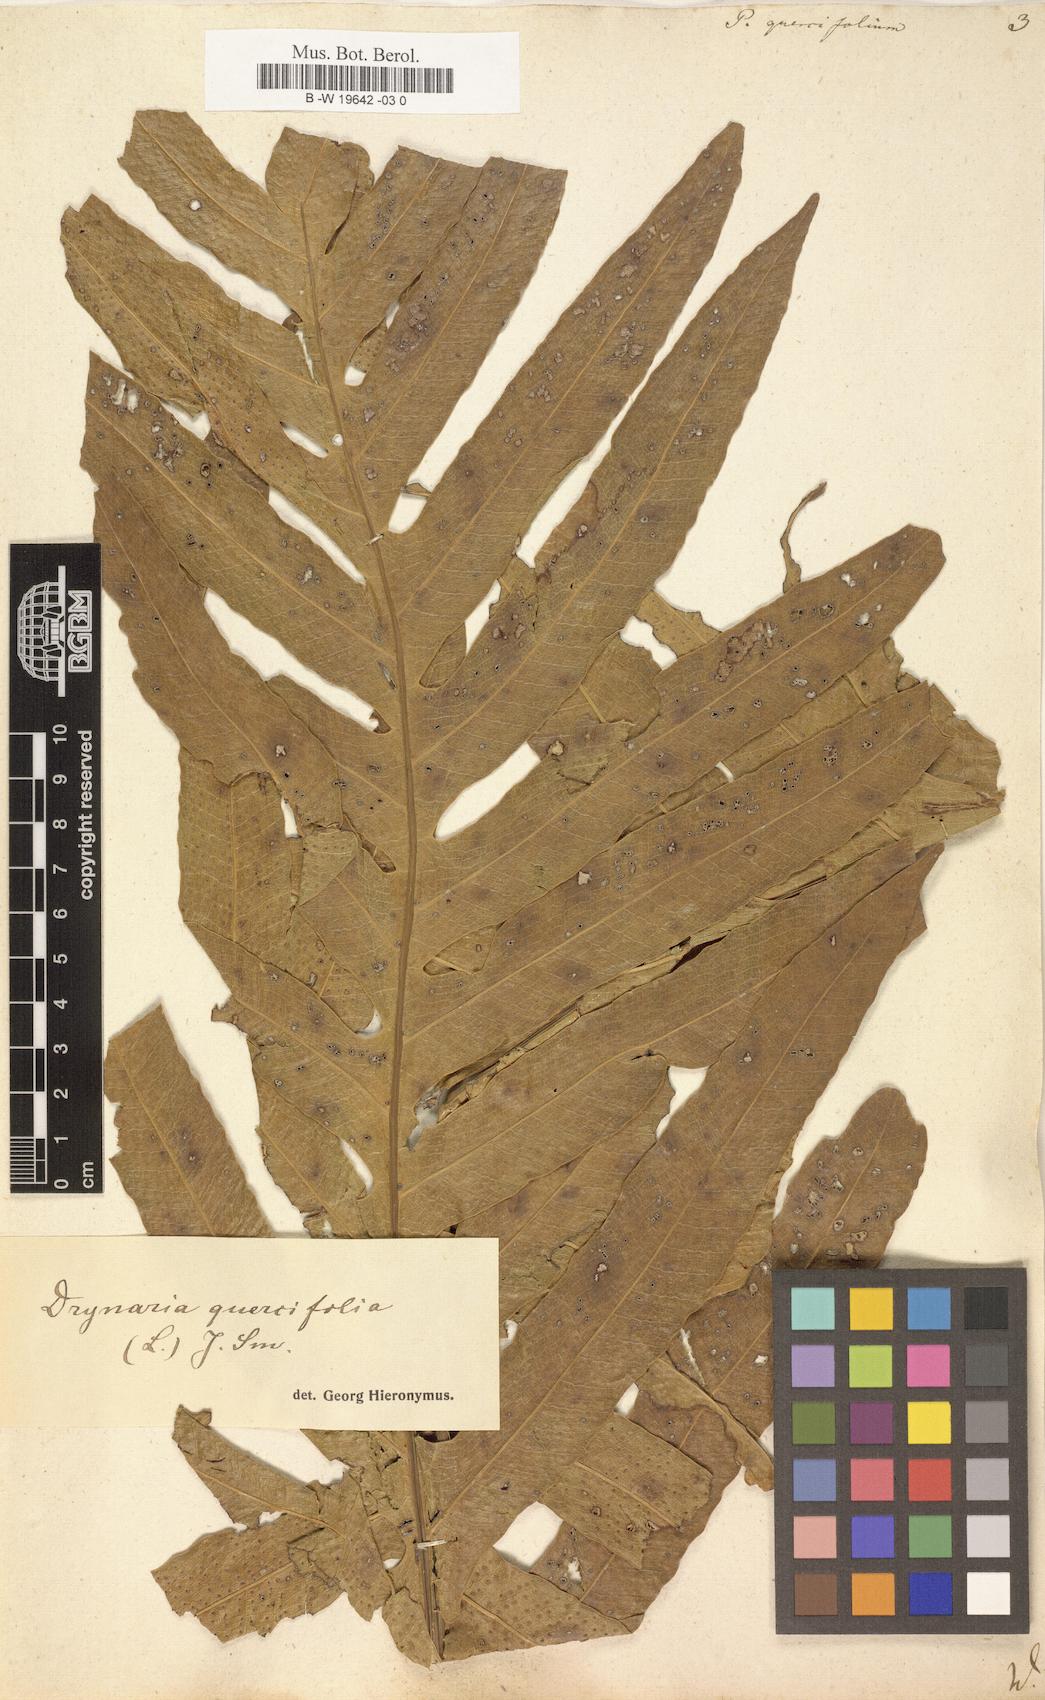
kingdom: Plantae
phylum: Tracheophyta
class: Polypodiopsida
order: Polypodiales
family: Polypodiaceae
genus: Drynaria
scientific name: Drynaria quercifolia
